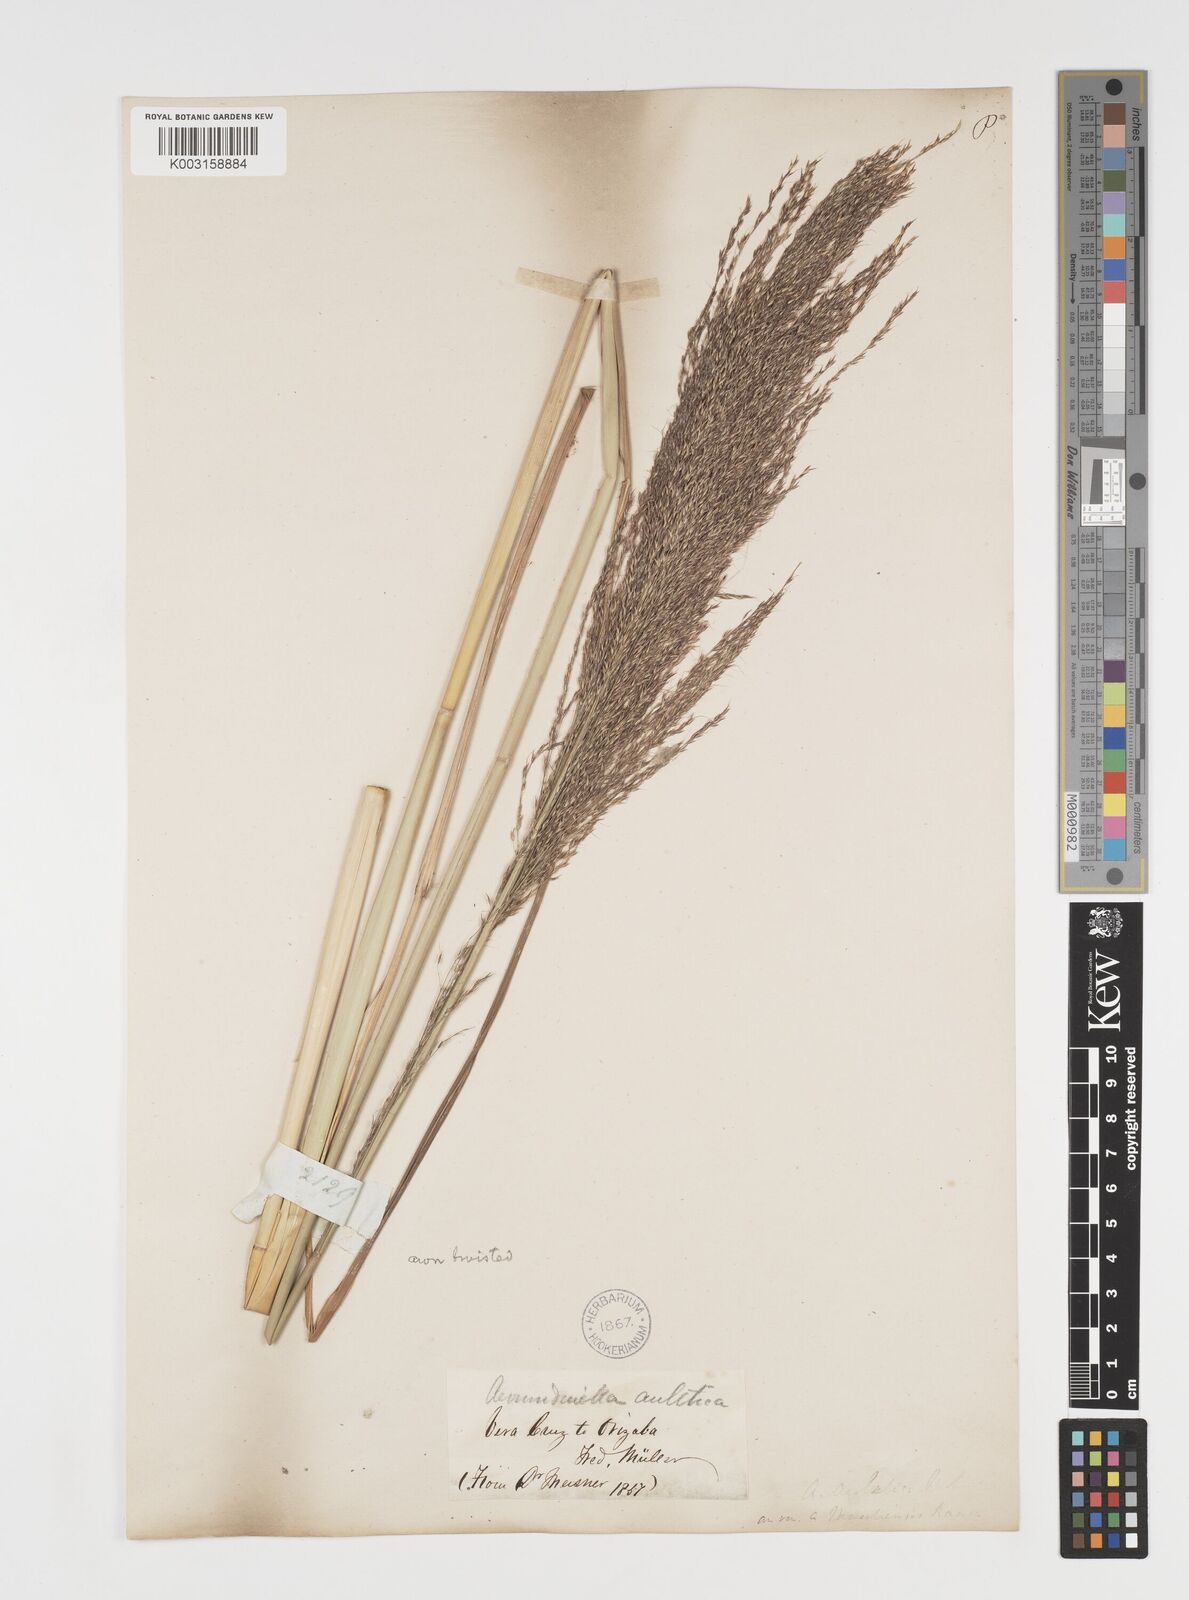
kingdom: Plantae
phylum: Tracheophyta
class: Liliopsida
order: Poales
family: Poaceae
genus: Arundinella
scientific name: Arundinella hispida
